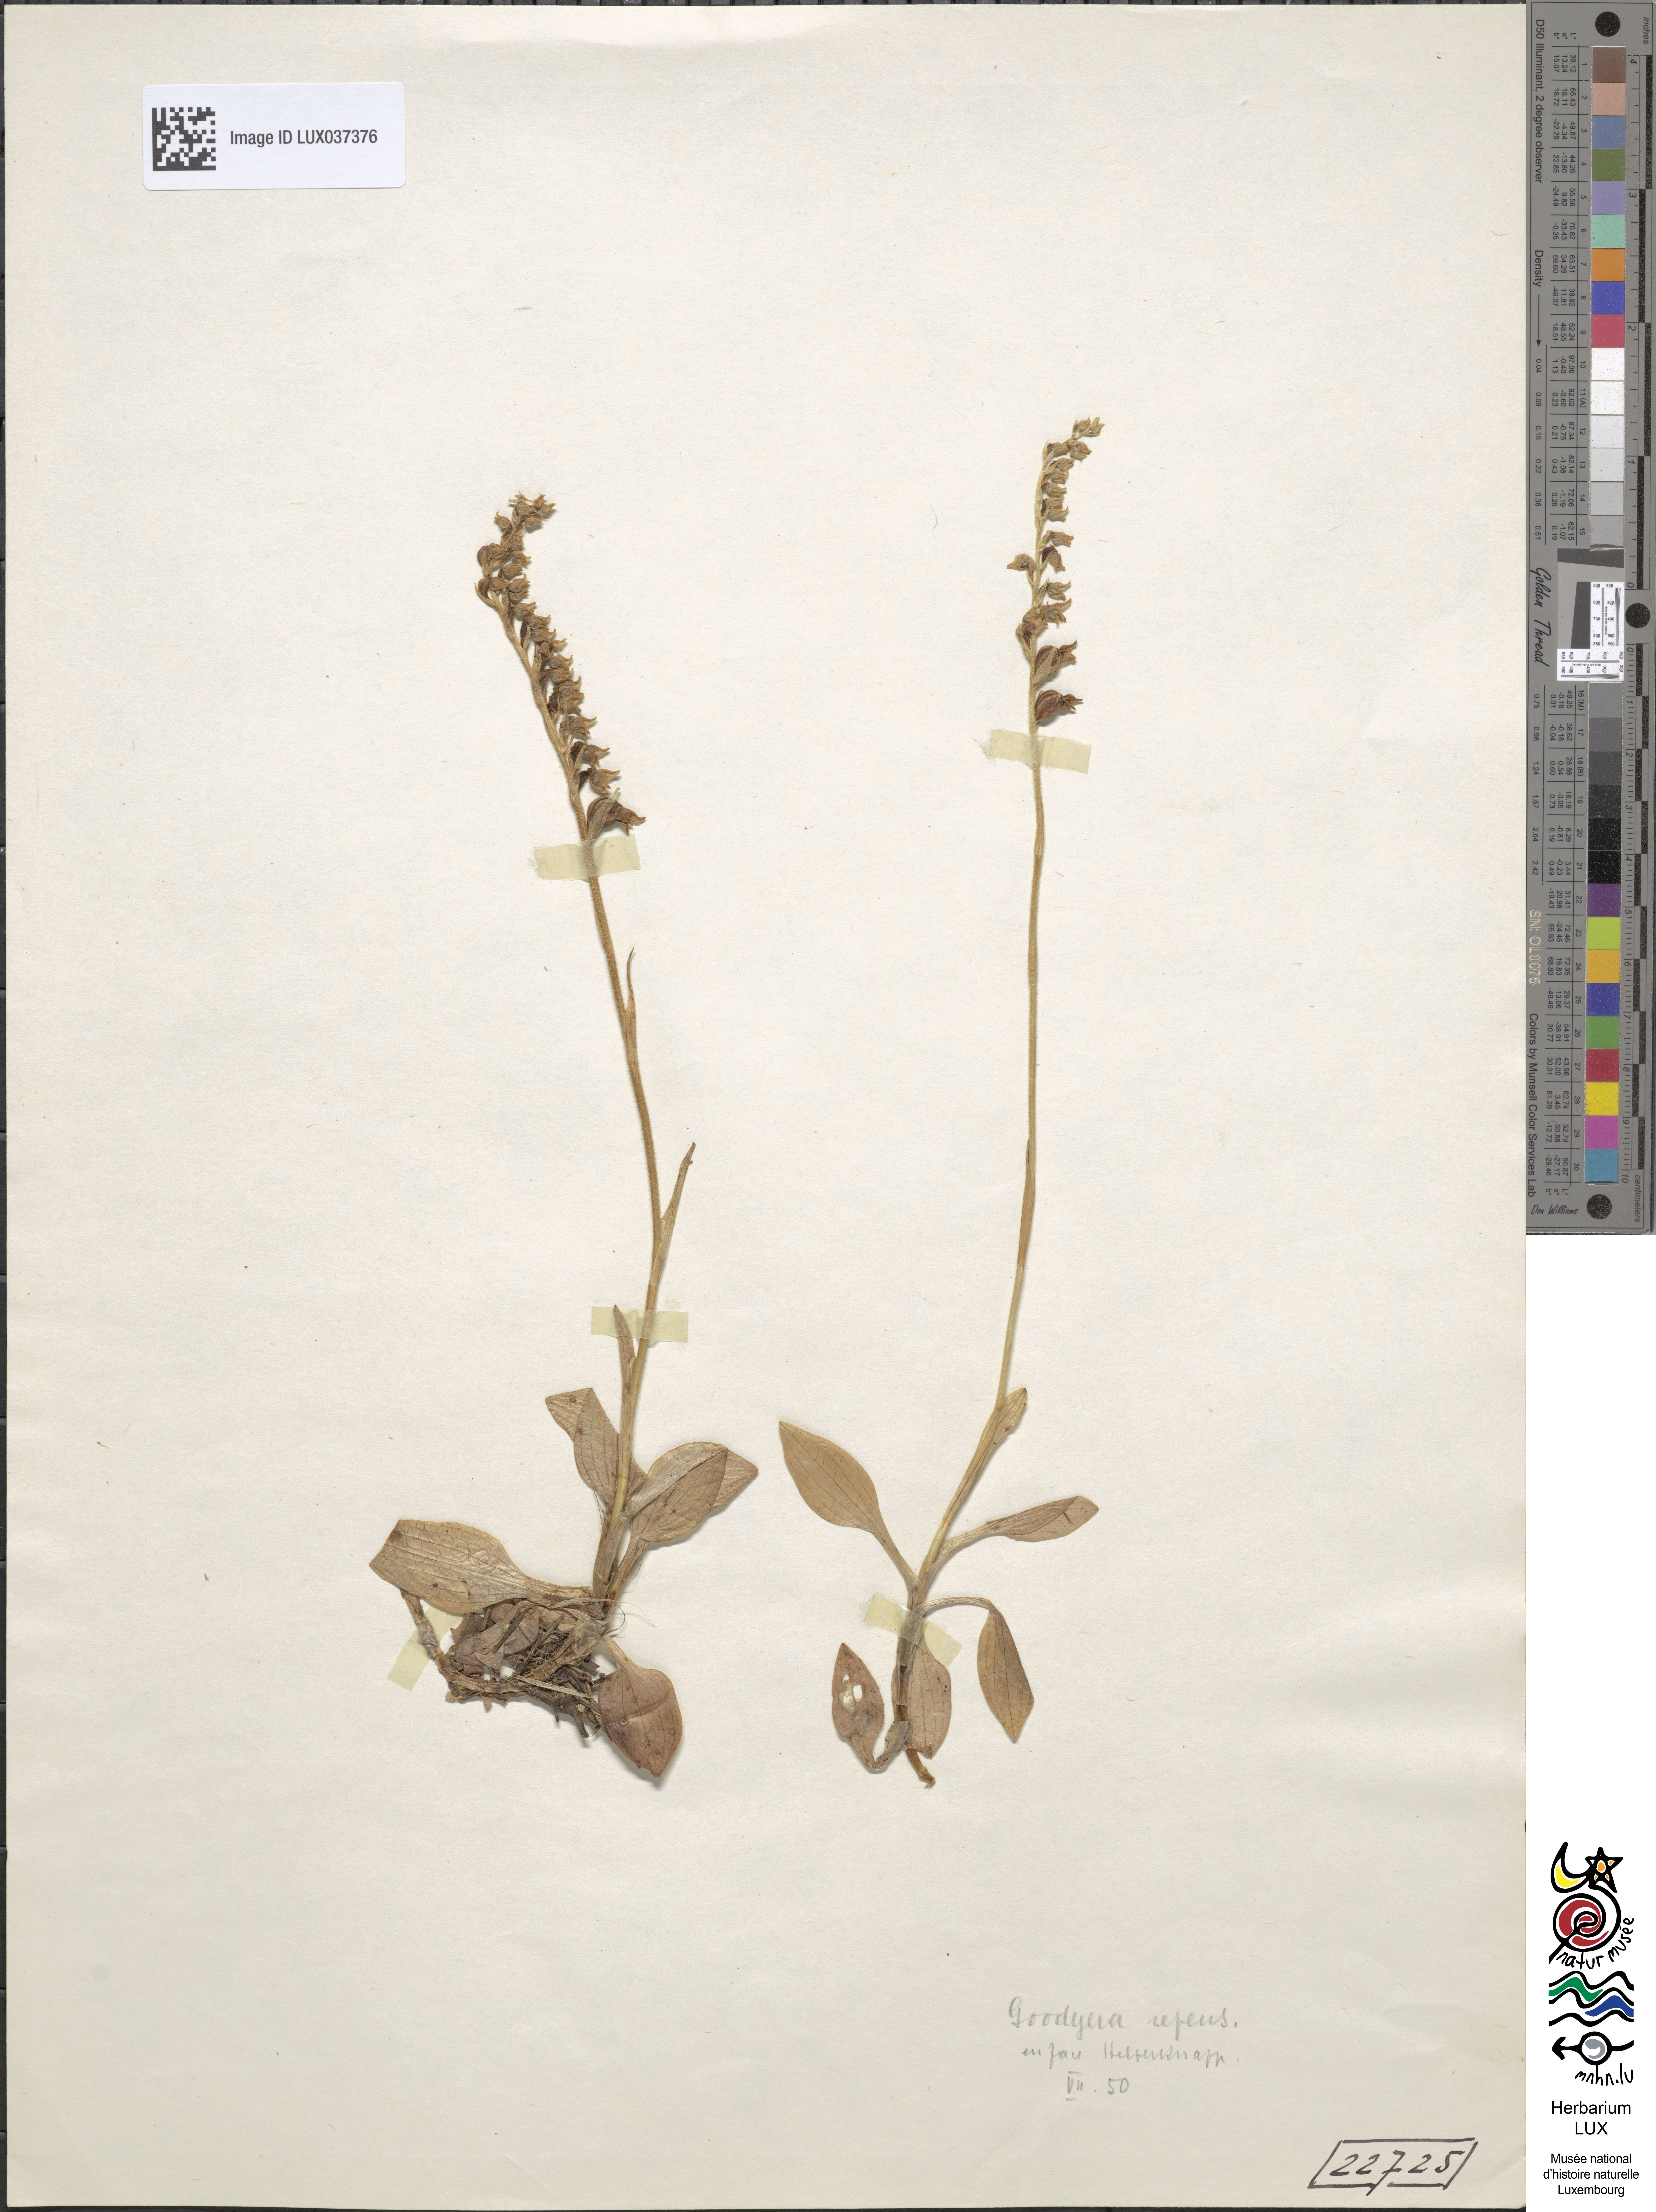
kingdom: Plantae
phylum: Tracheophyta
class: Liliopsida
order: Asparagales
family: Orchidaceae
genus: Goodyera
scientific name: Goodyera repens
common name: Creeping lady's-tresses
